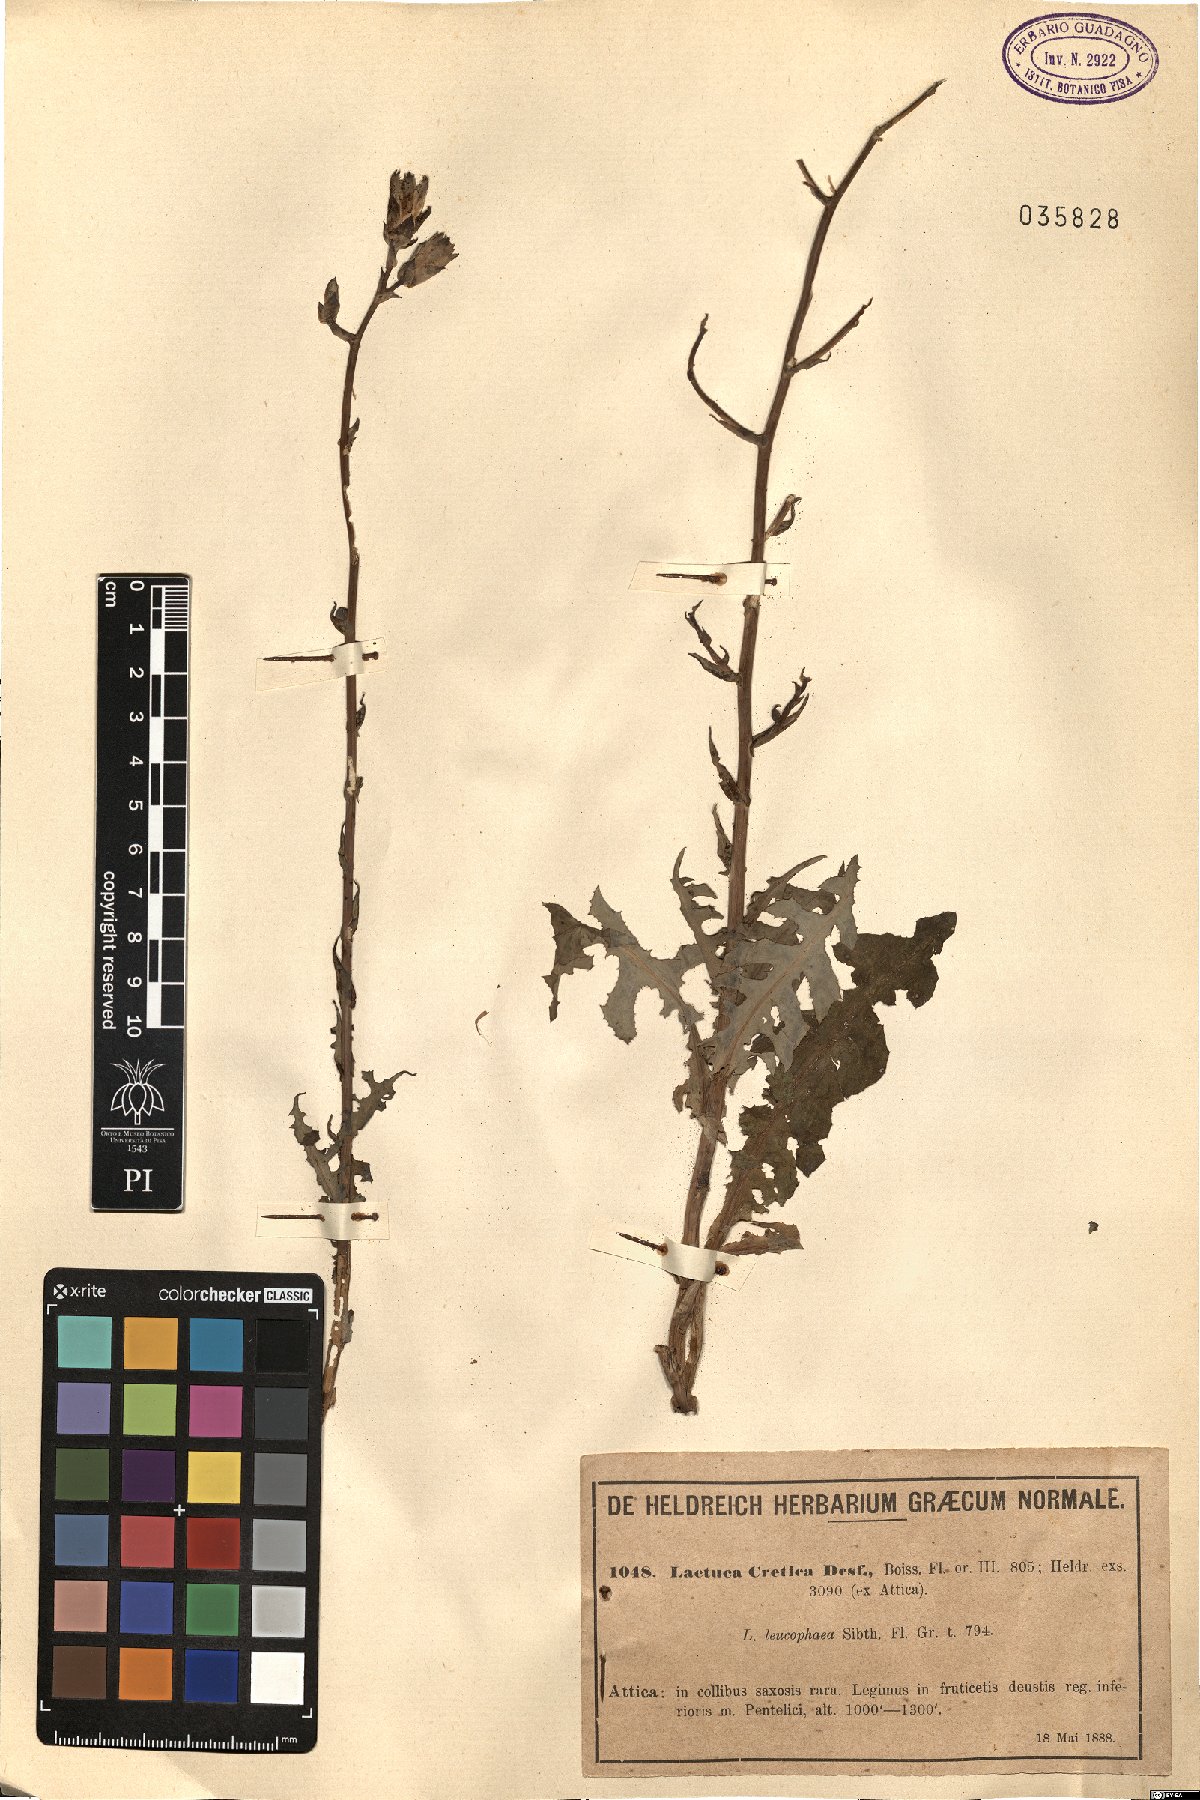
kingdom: Plantae
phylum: Tracheophyta
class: Magnoliopsida
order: Asterales
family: Asteraceae
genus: Lactuca
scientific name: Lactuca tuberosa
